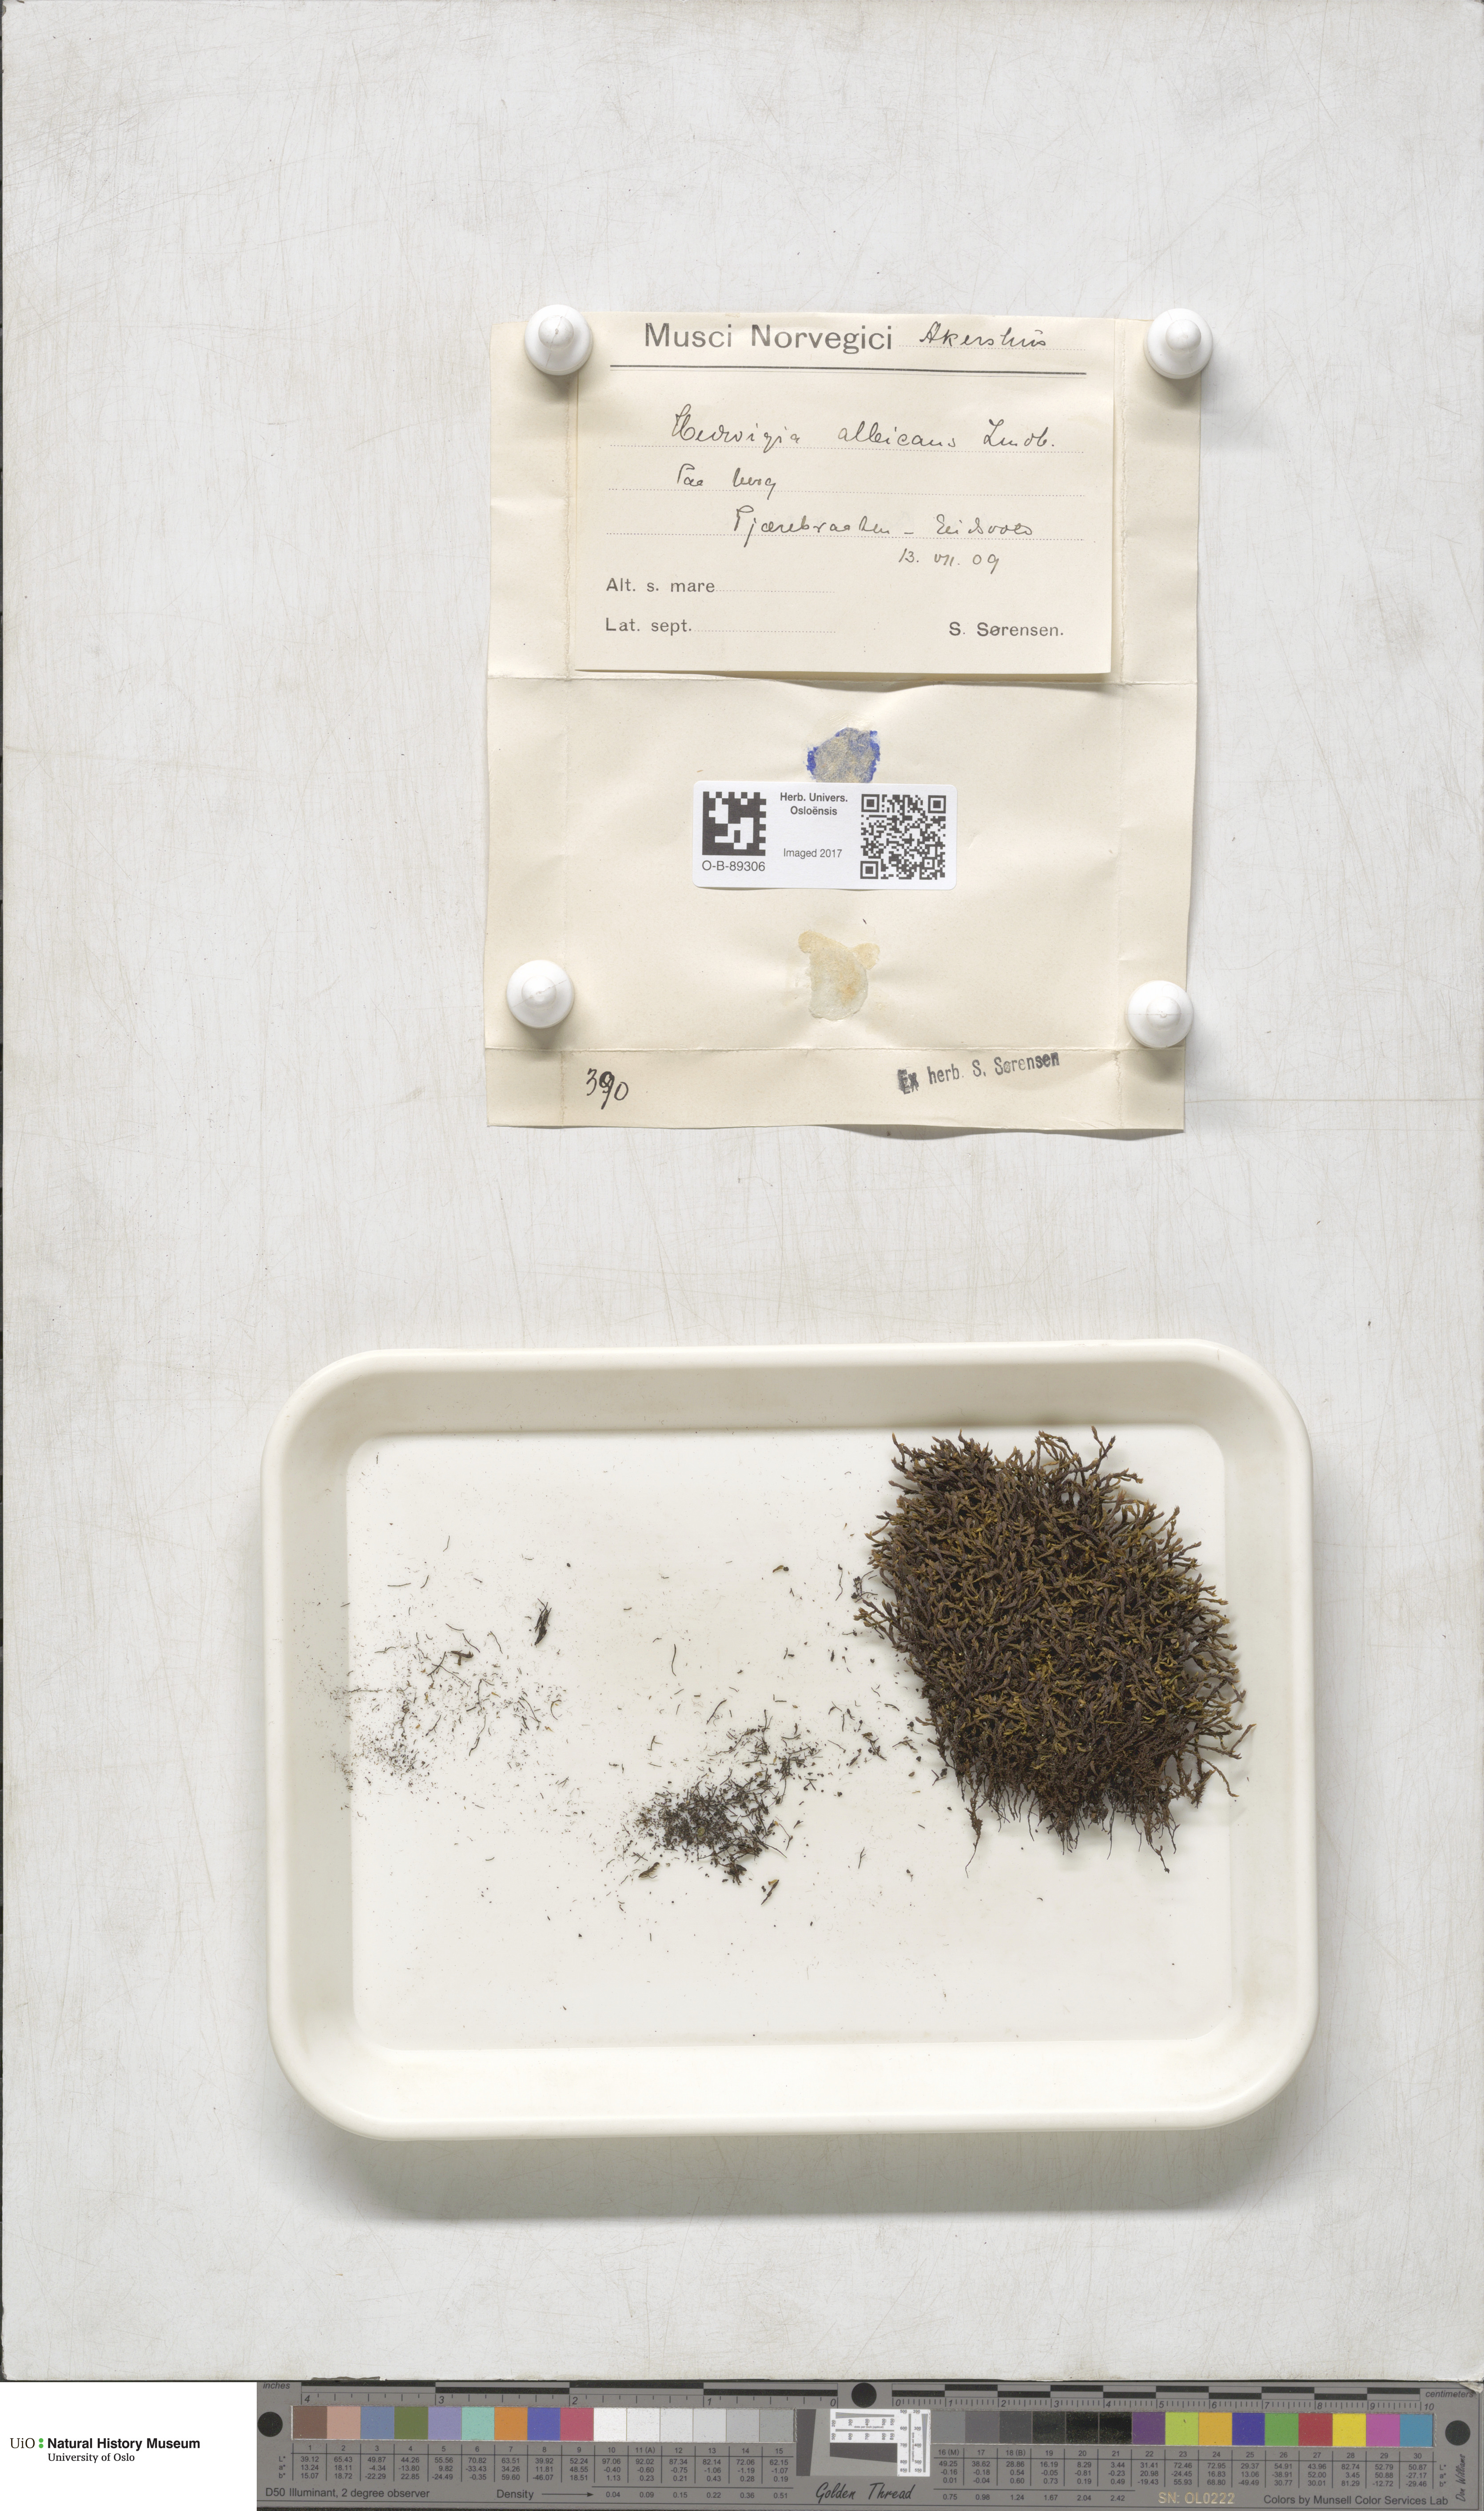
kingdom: Plantae
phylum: Bryophyta
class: Bryopsida
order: Hedwigiales
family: Hedwigiaceae
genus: Hedwigia
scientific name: Hedwigia ciliata
